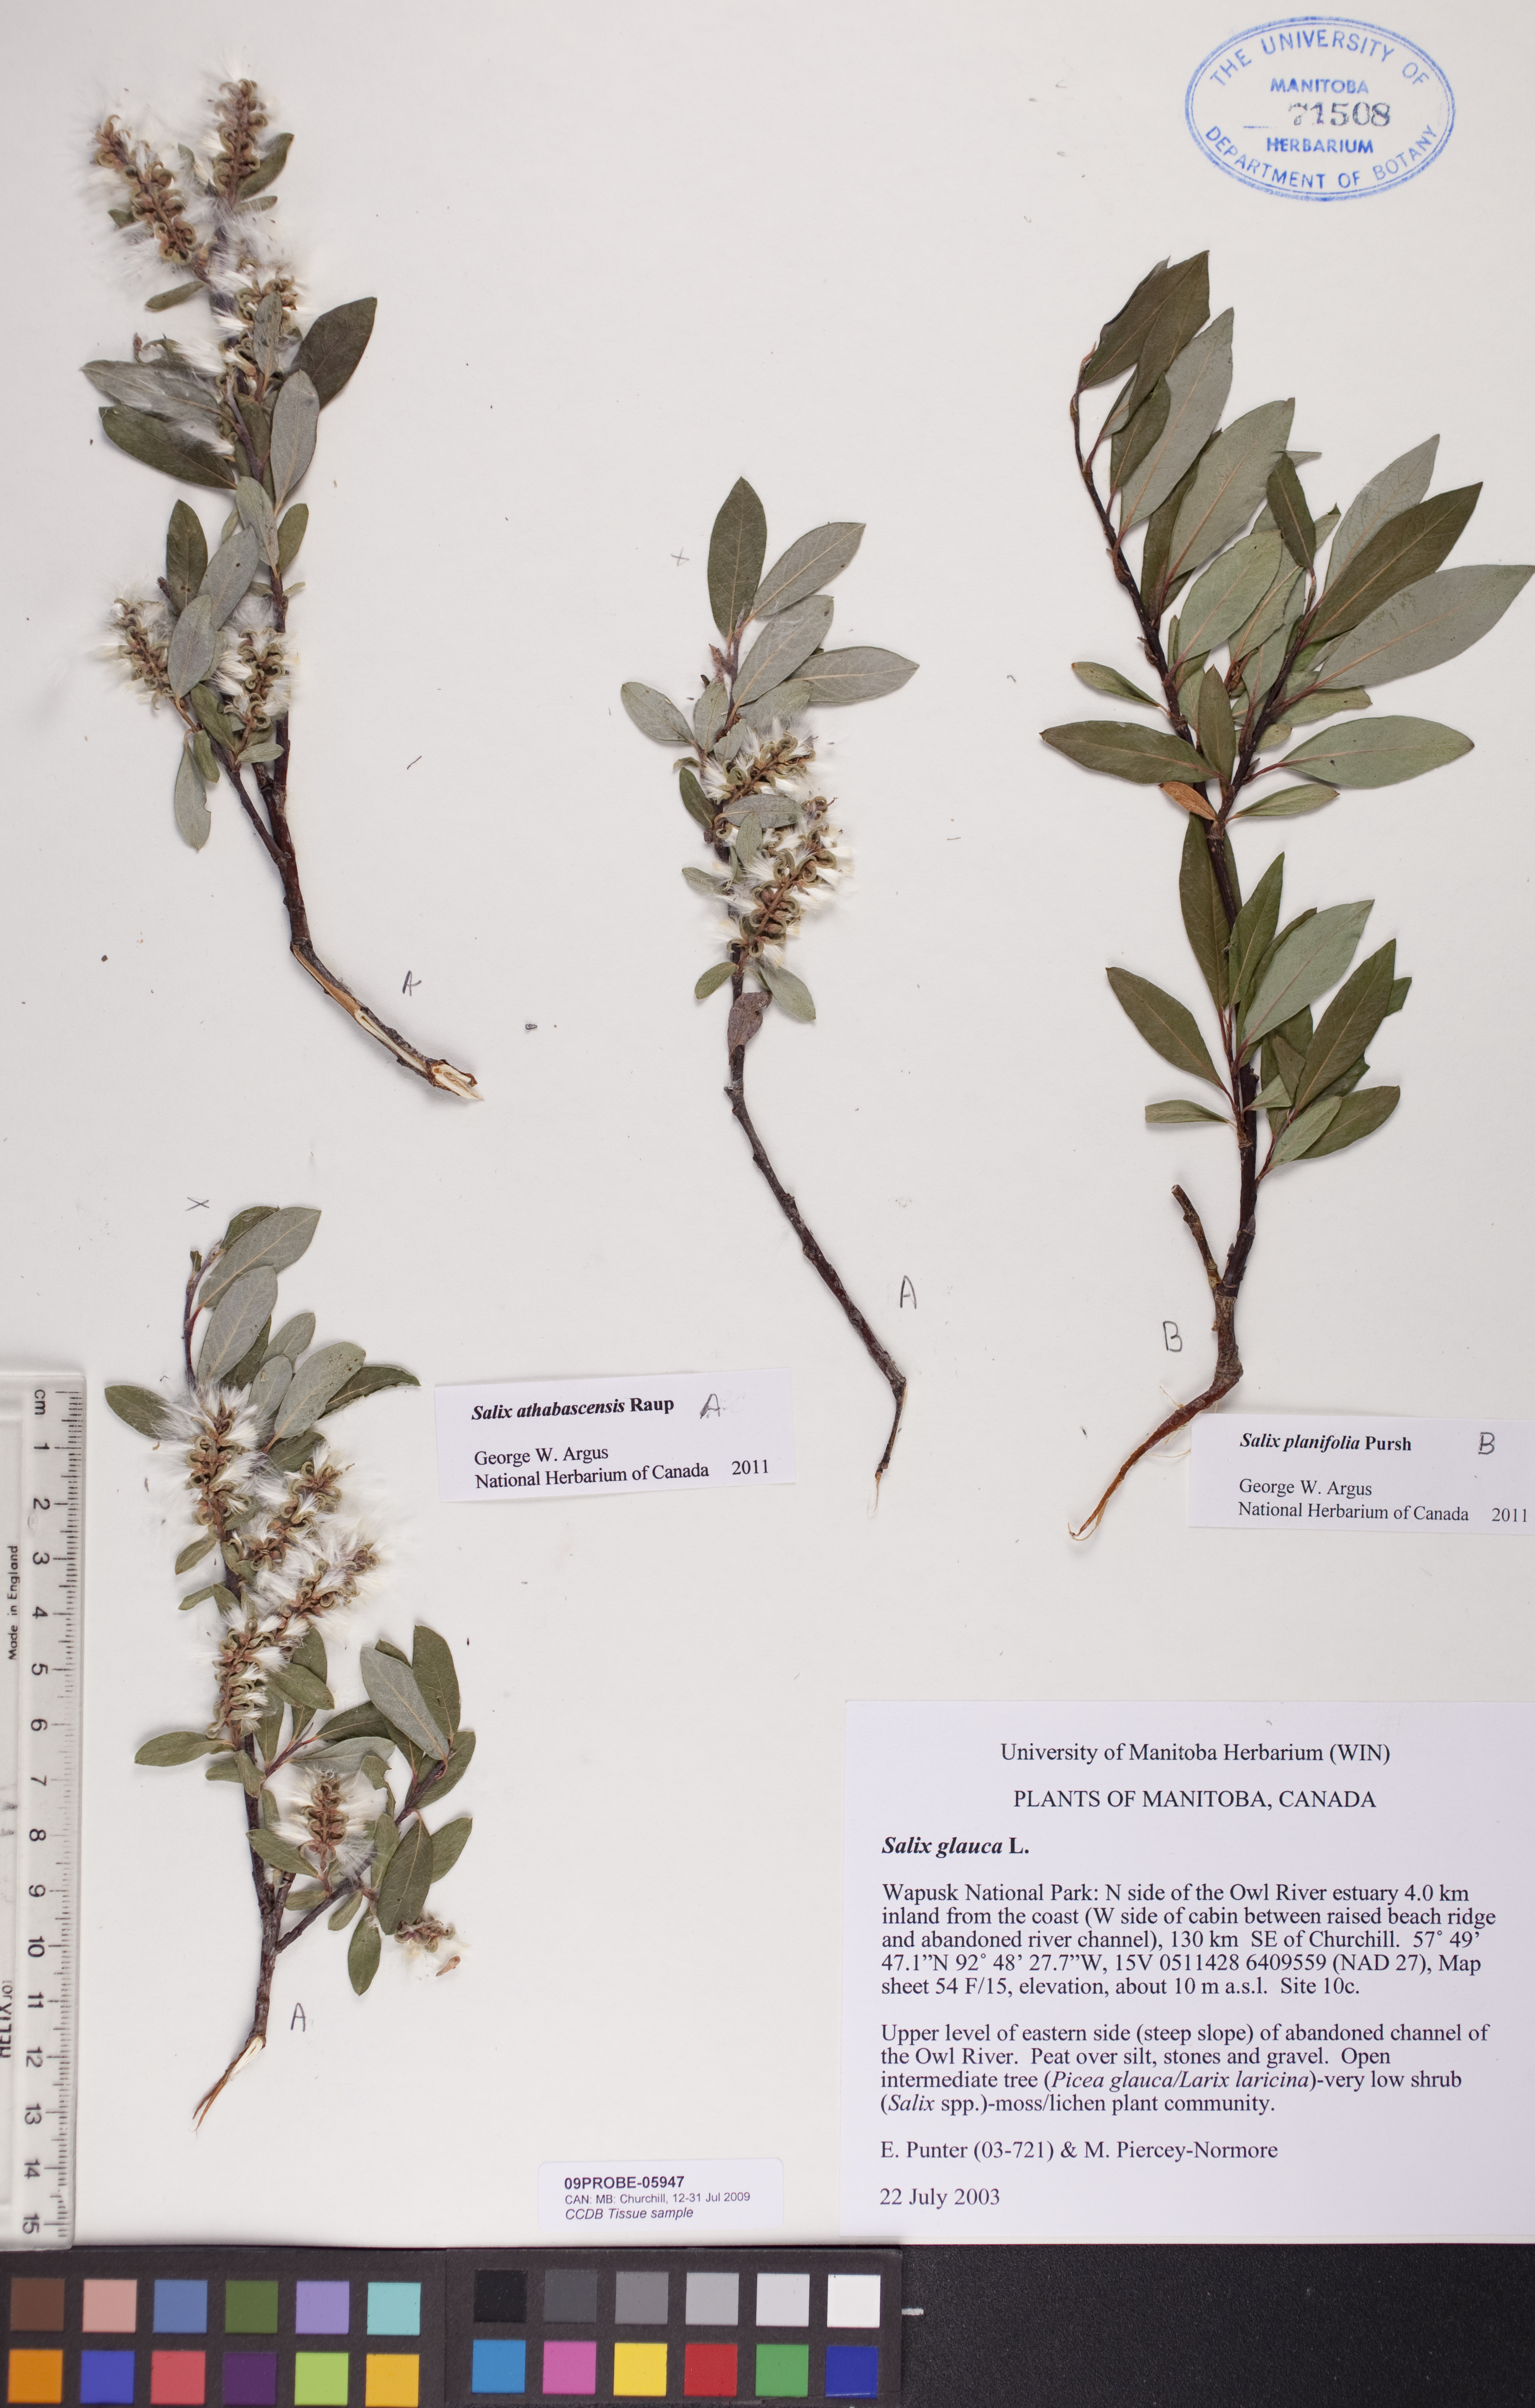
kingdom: Plantae
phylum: Tracheophyta
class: Magnoliopsida
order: Malpighiales
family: Salicaceae
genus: Salix
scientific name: Salix athabascensis
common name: Athabasca willow
